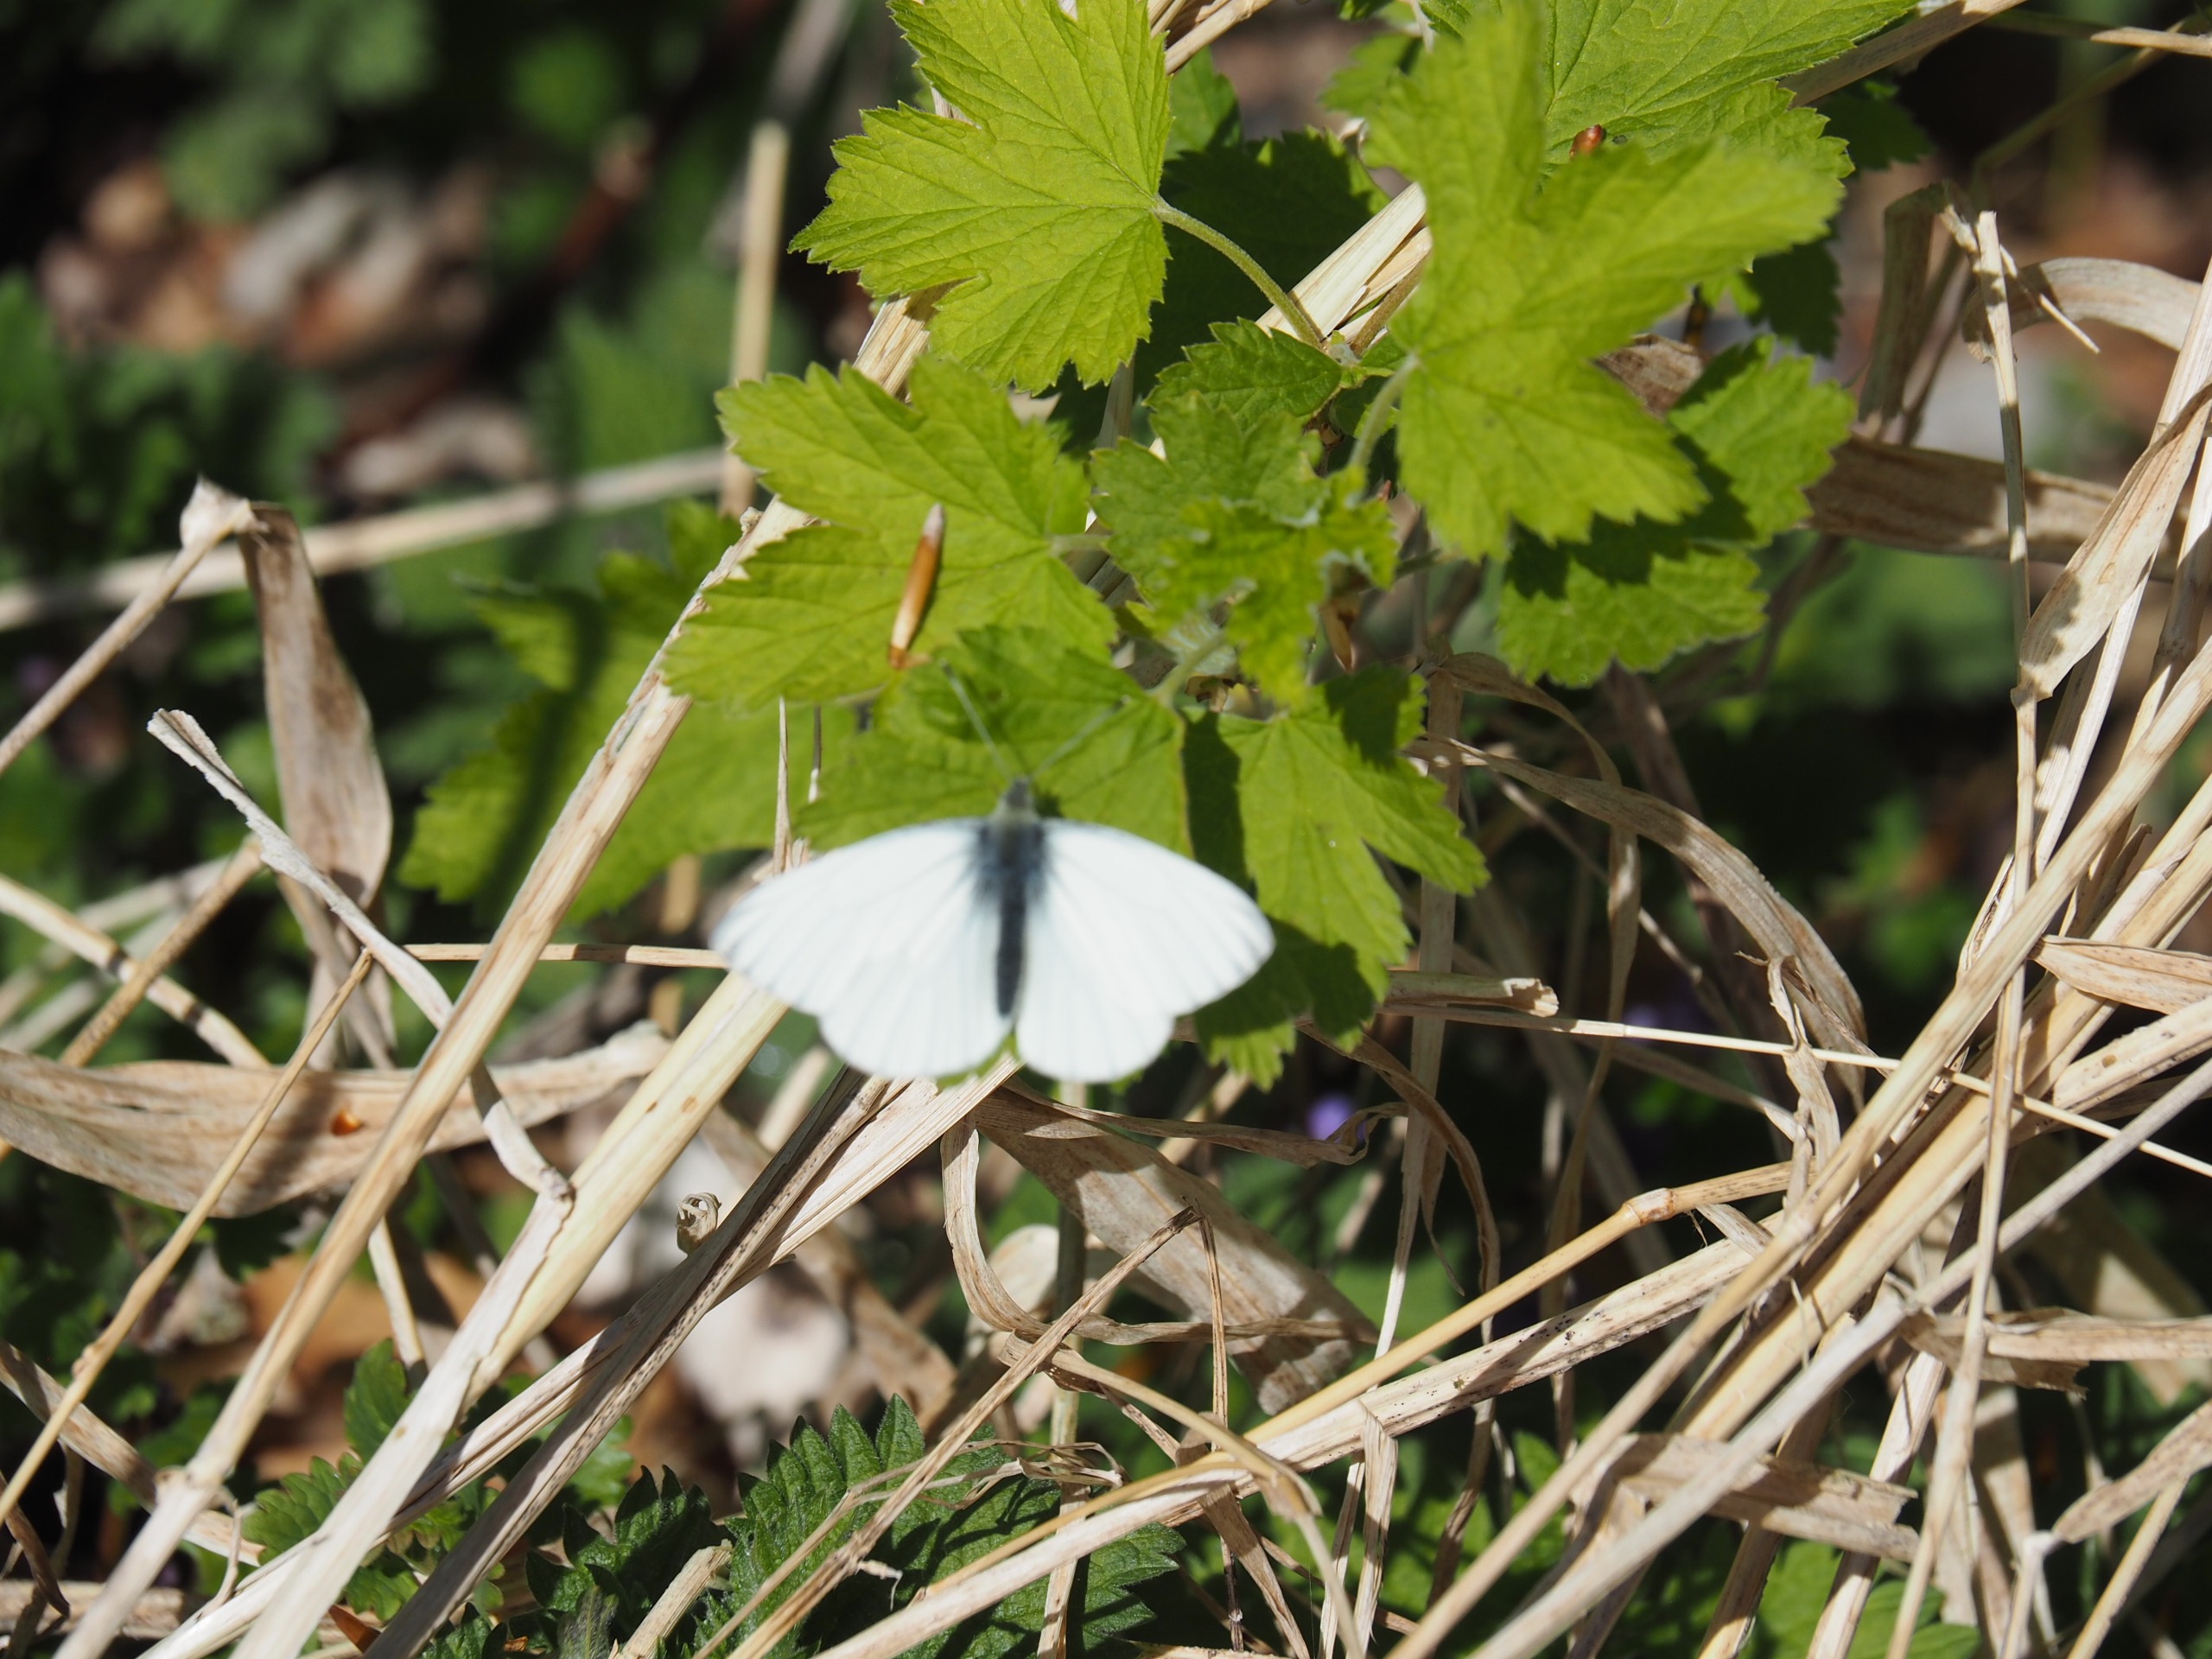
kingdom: Animalia
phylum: Arthropoda
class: Insecta
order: Lepidoptera
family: Pieridae
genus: Pieris
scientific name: Pieris napi
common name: Grønåret kålsommerfugl
